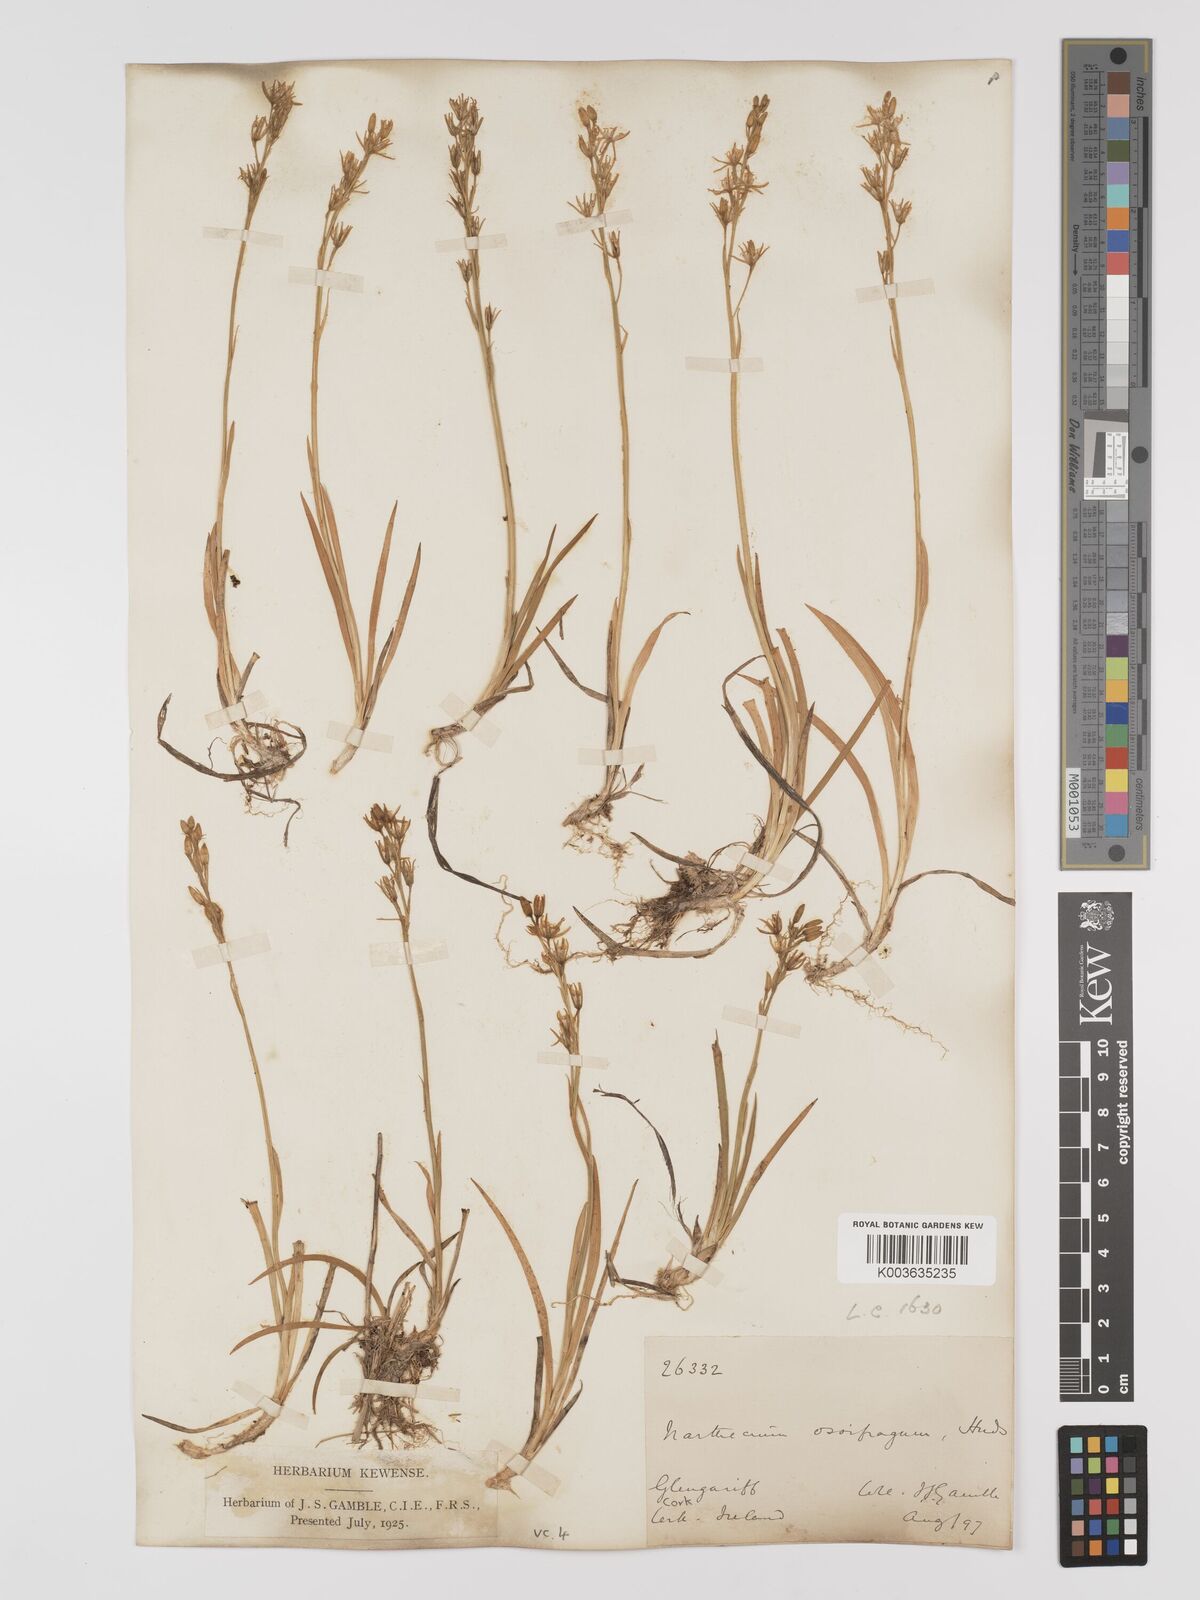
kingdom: Plantae
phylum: Tracheophyta
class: Liliopsida
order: Dioscoreales
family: Nartheciaceae
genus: Narthecium
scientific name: Narthecium ossifragum
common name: Bog asphodel
